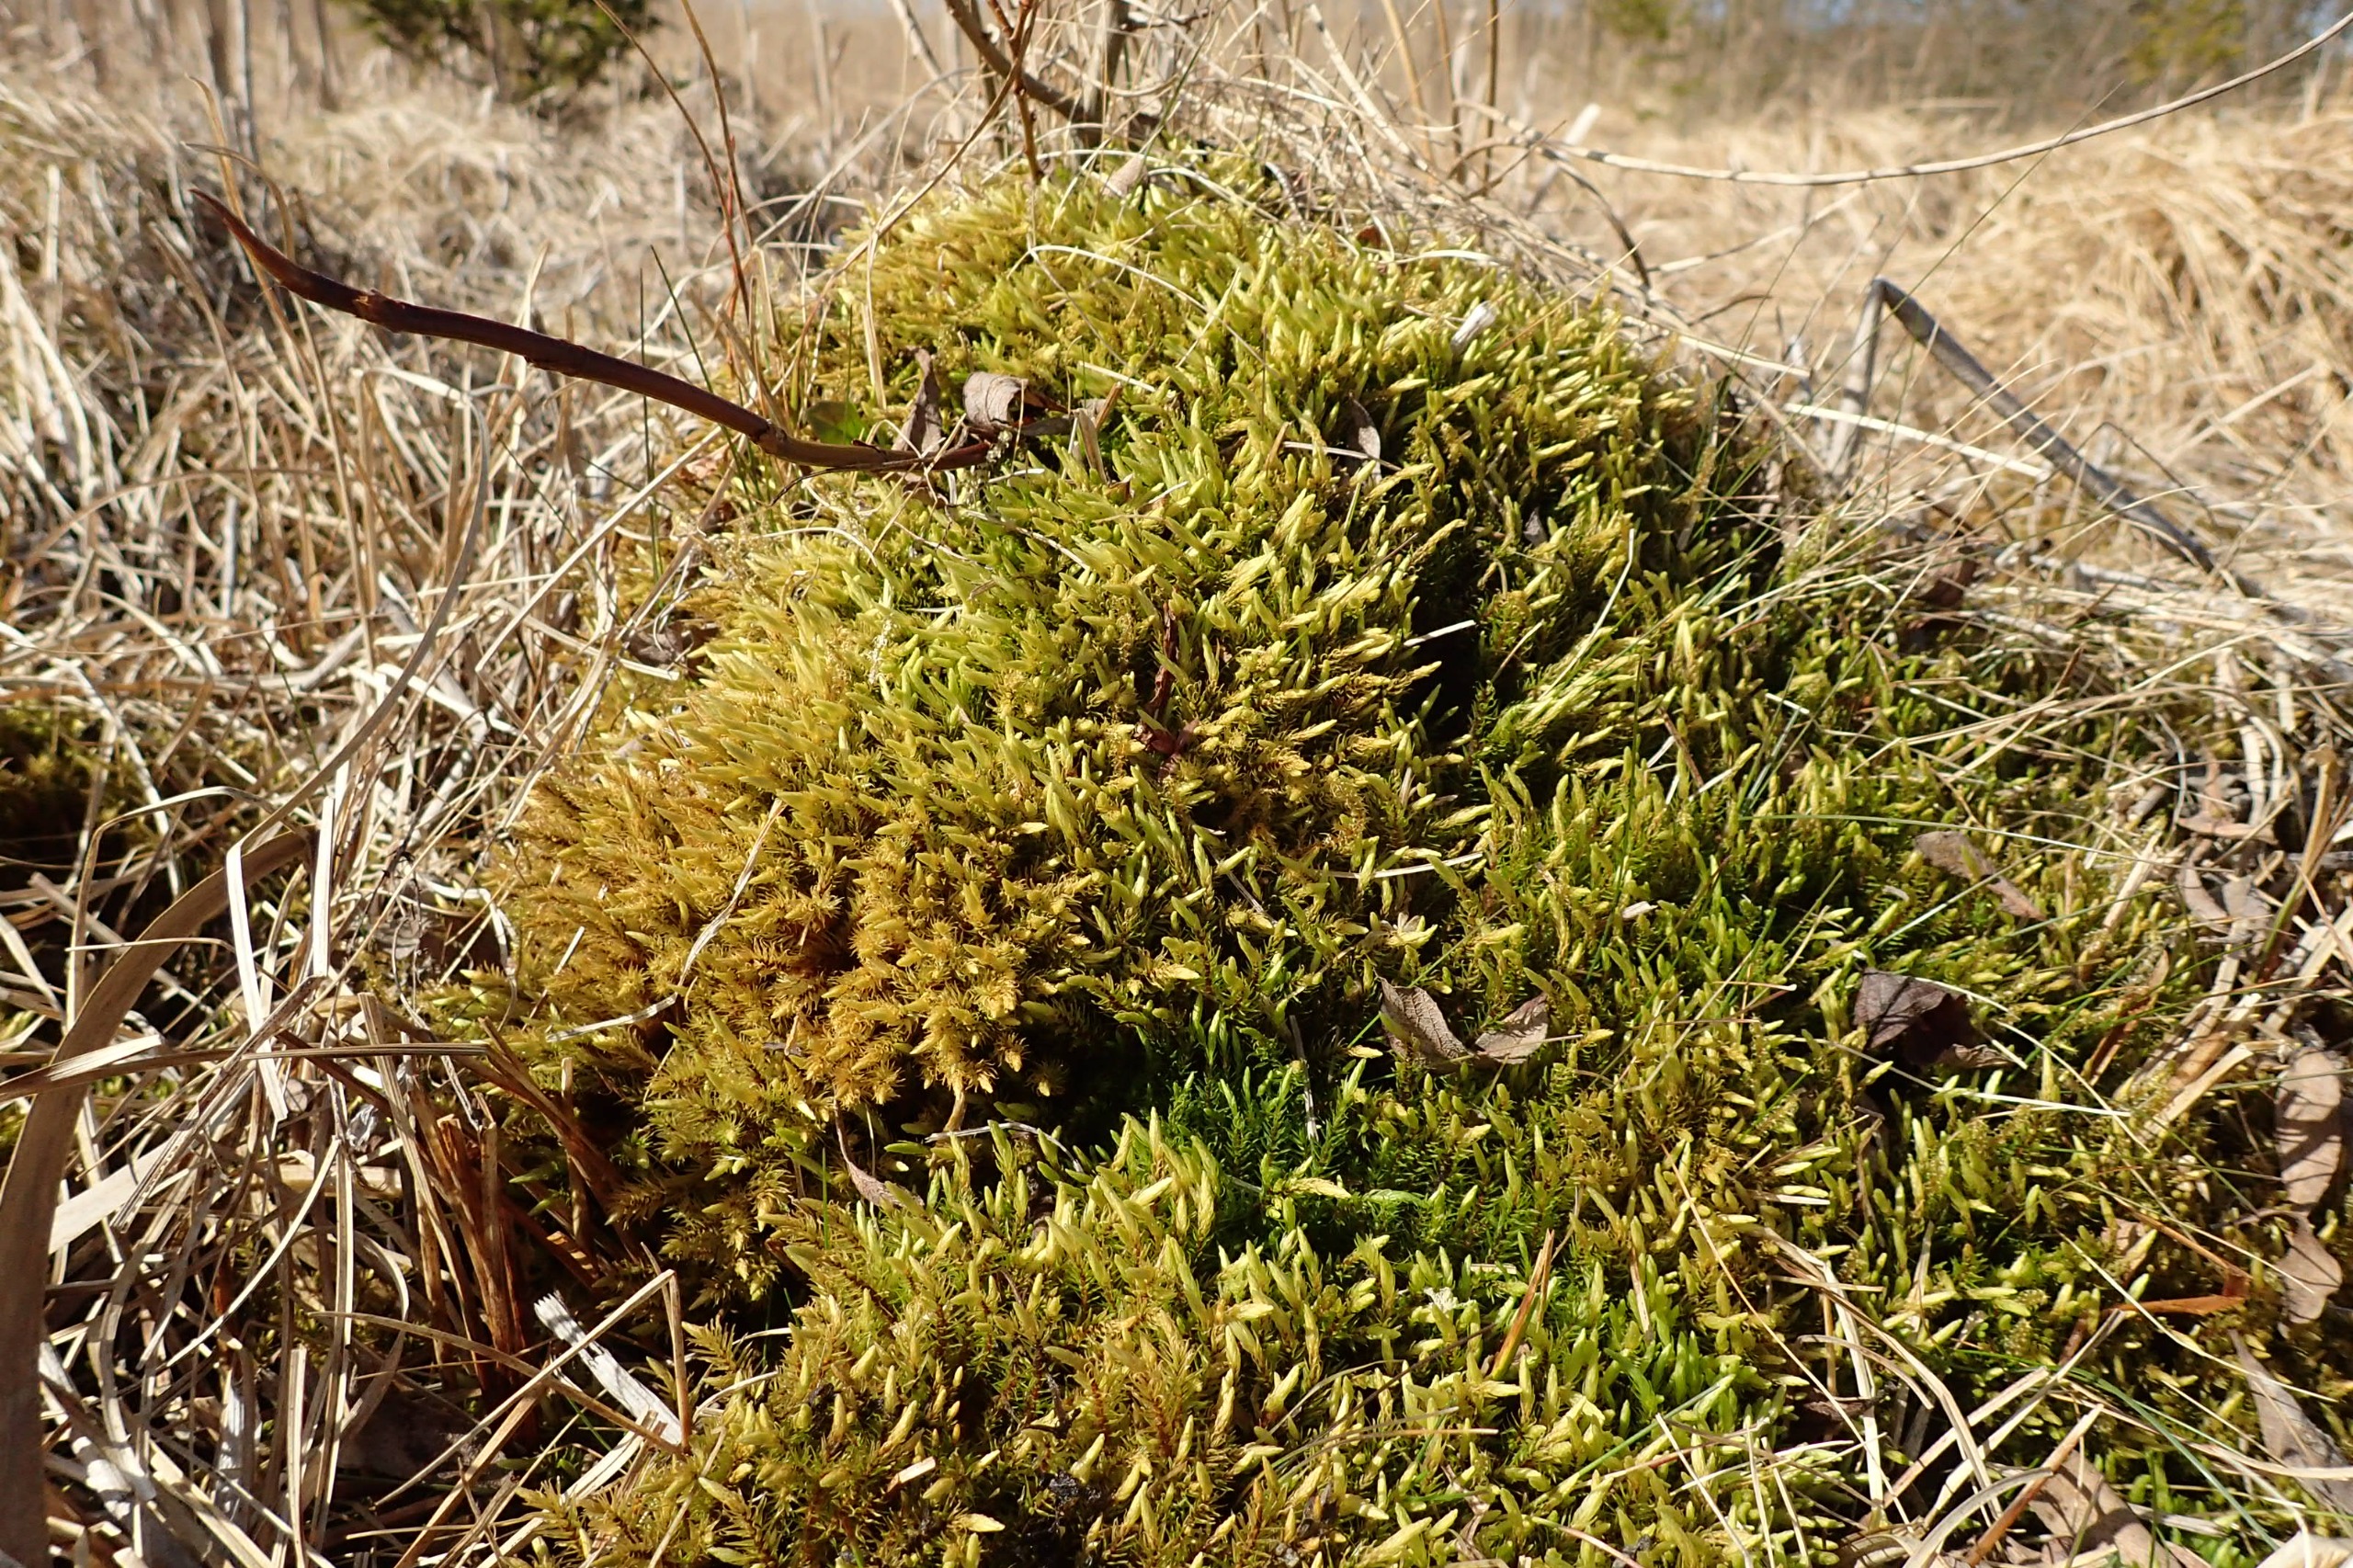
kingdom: Plantae
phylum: Bryophyta
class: Bryopsida
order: Aulacomniales
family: Aulacomniaceae
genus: Aulacomnium
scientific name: Aulacomnium palustre
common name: Almindelig filtmos
